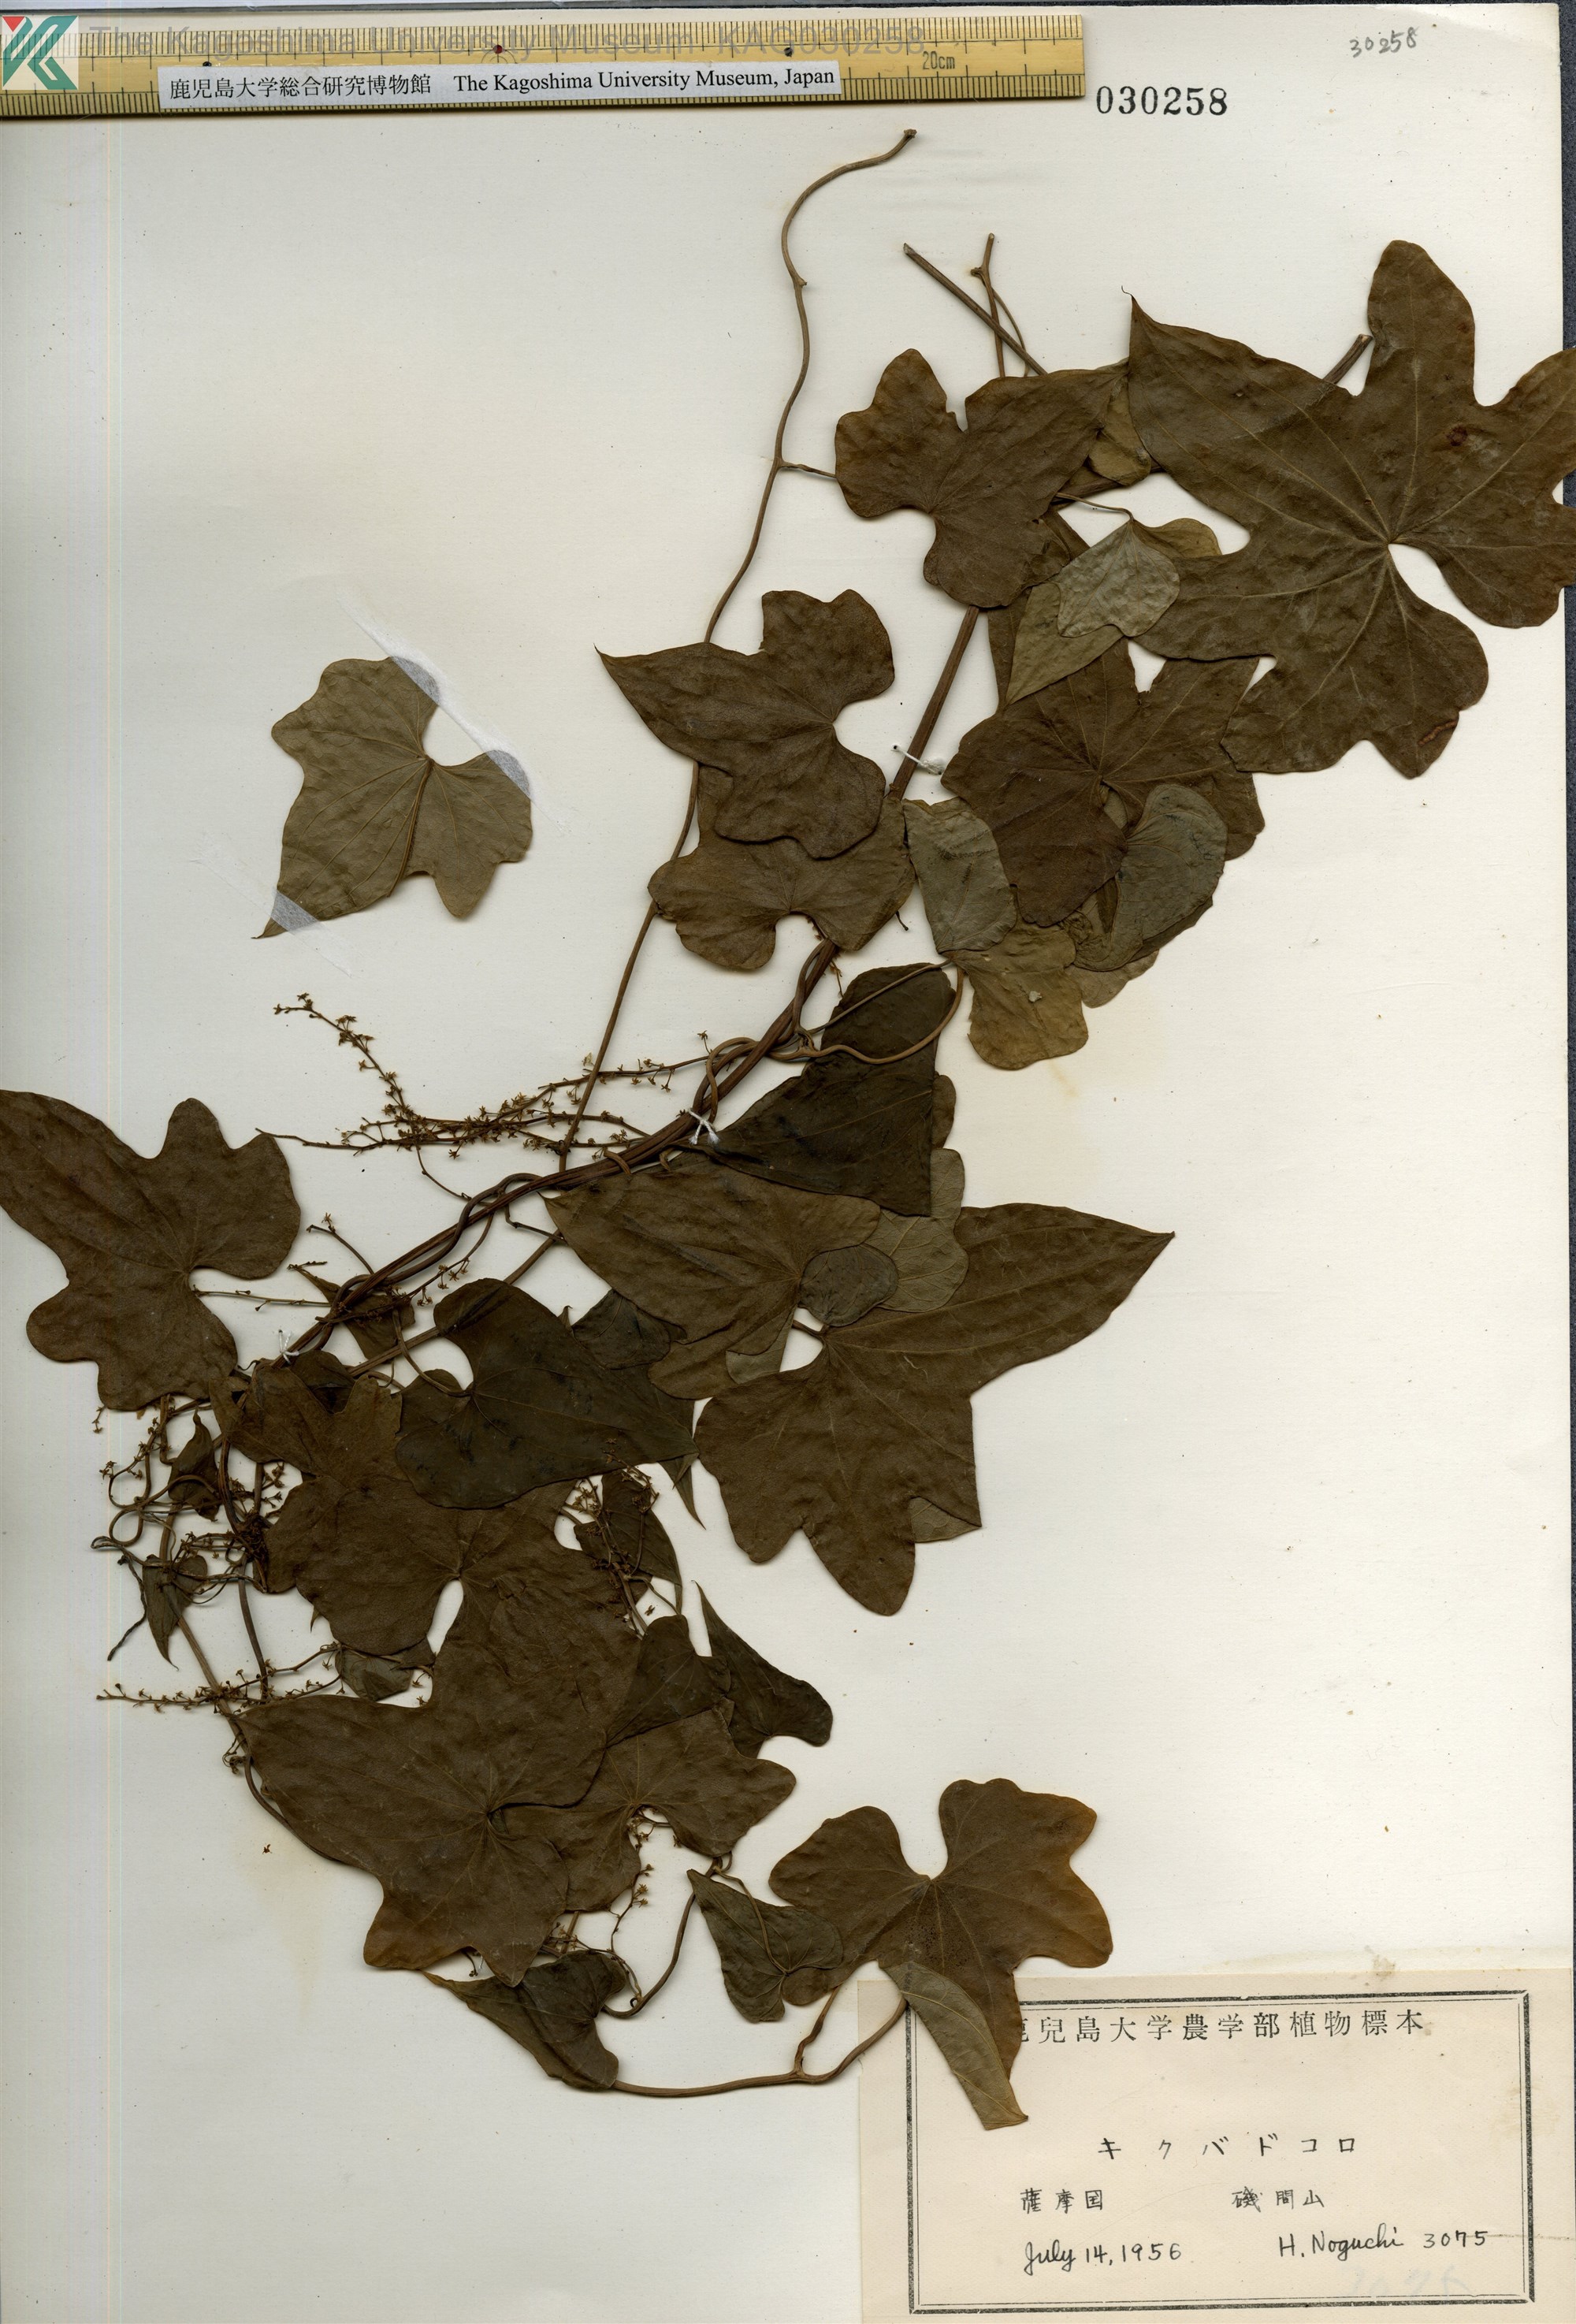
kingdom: Plantae
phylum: Tracheophyta
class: Liliopsida
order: Dioscoreales
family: Dioscoreaceae
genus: Dioscorea
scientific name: Dioscorea septemloba
